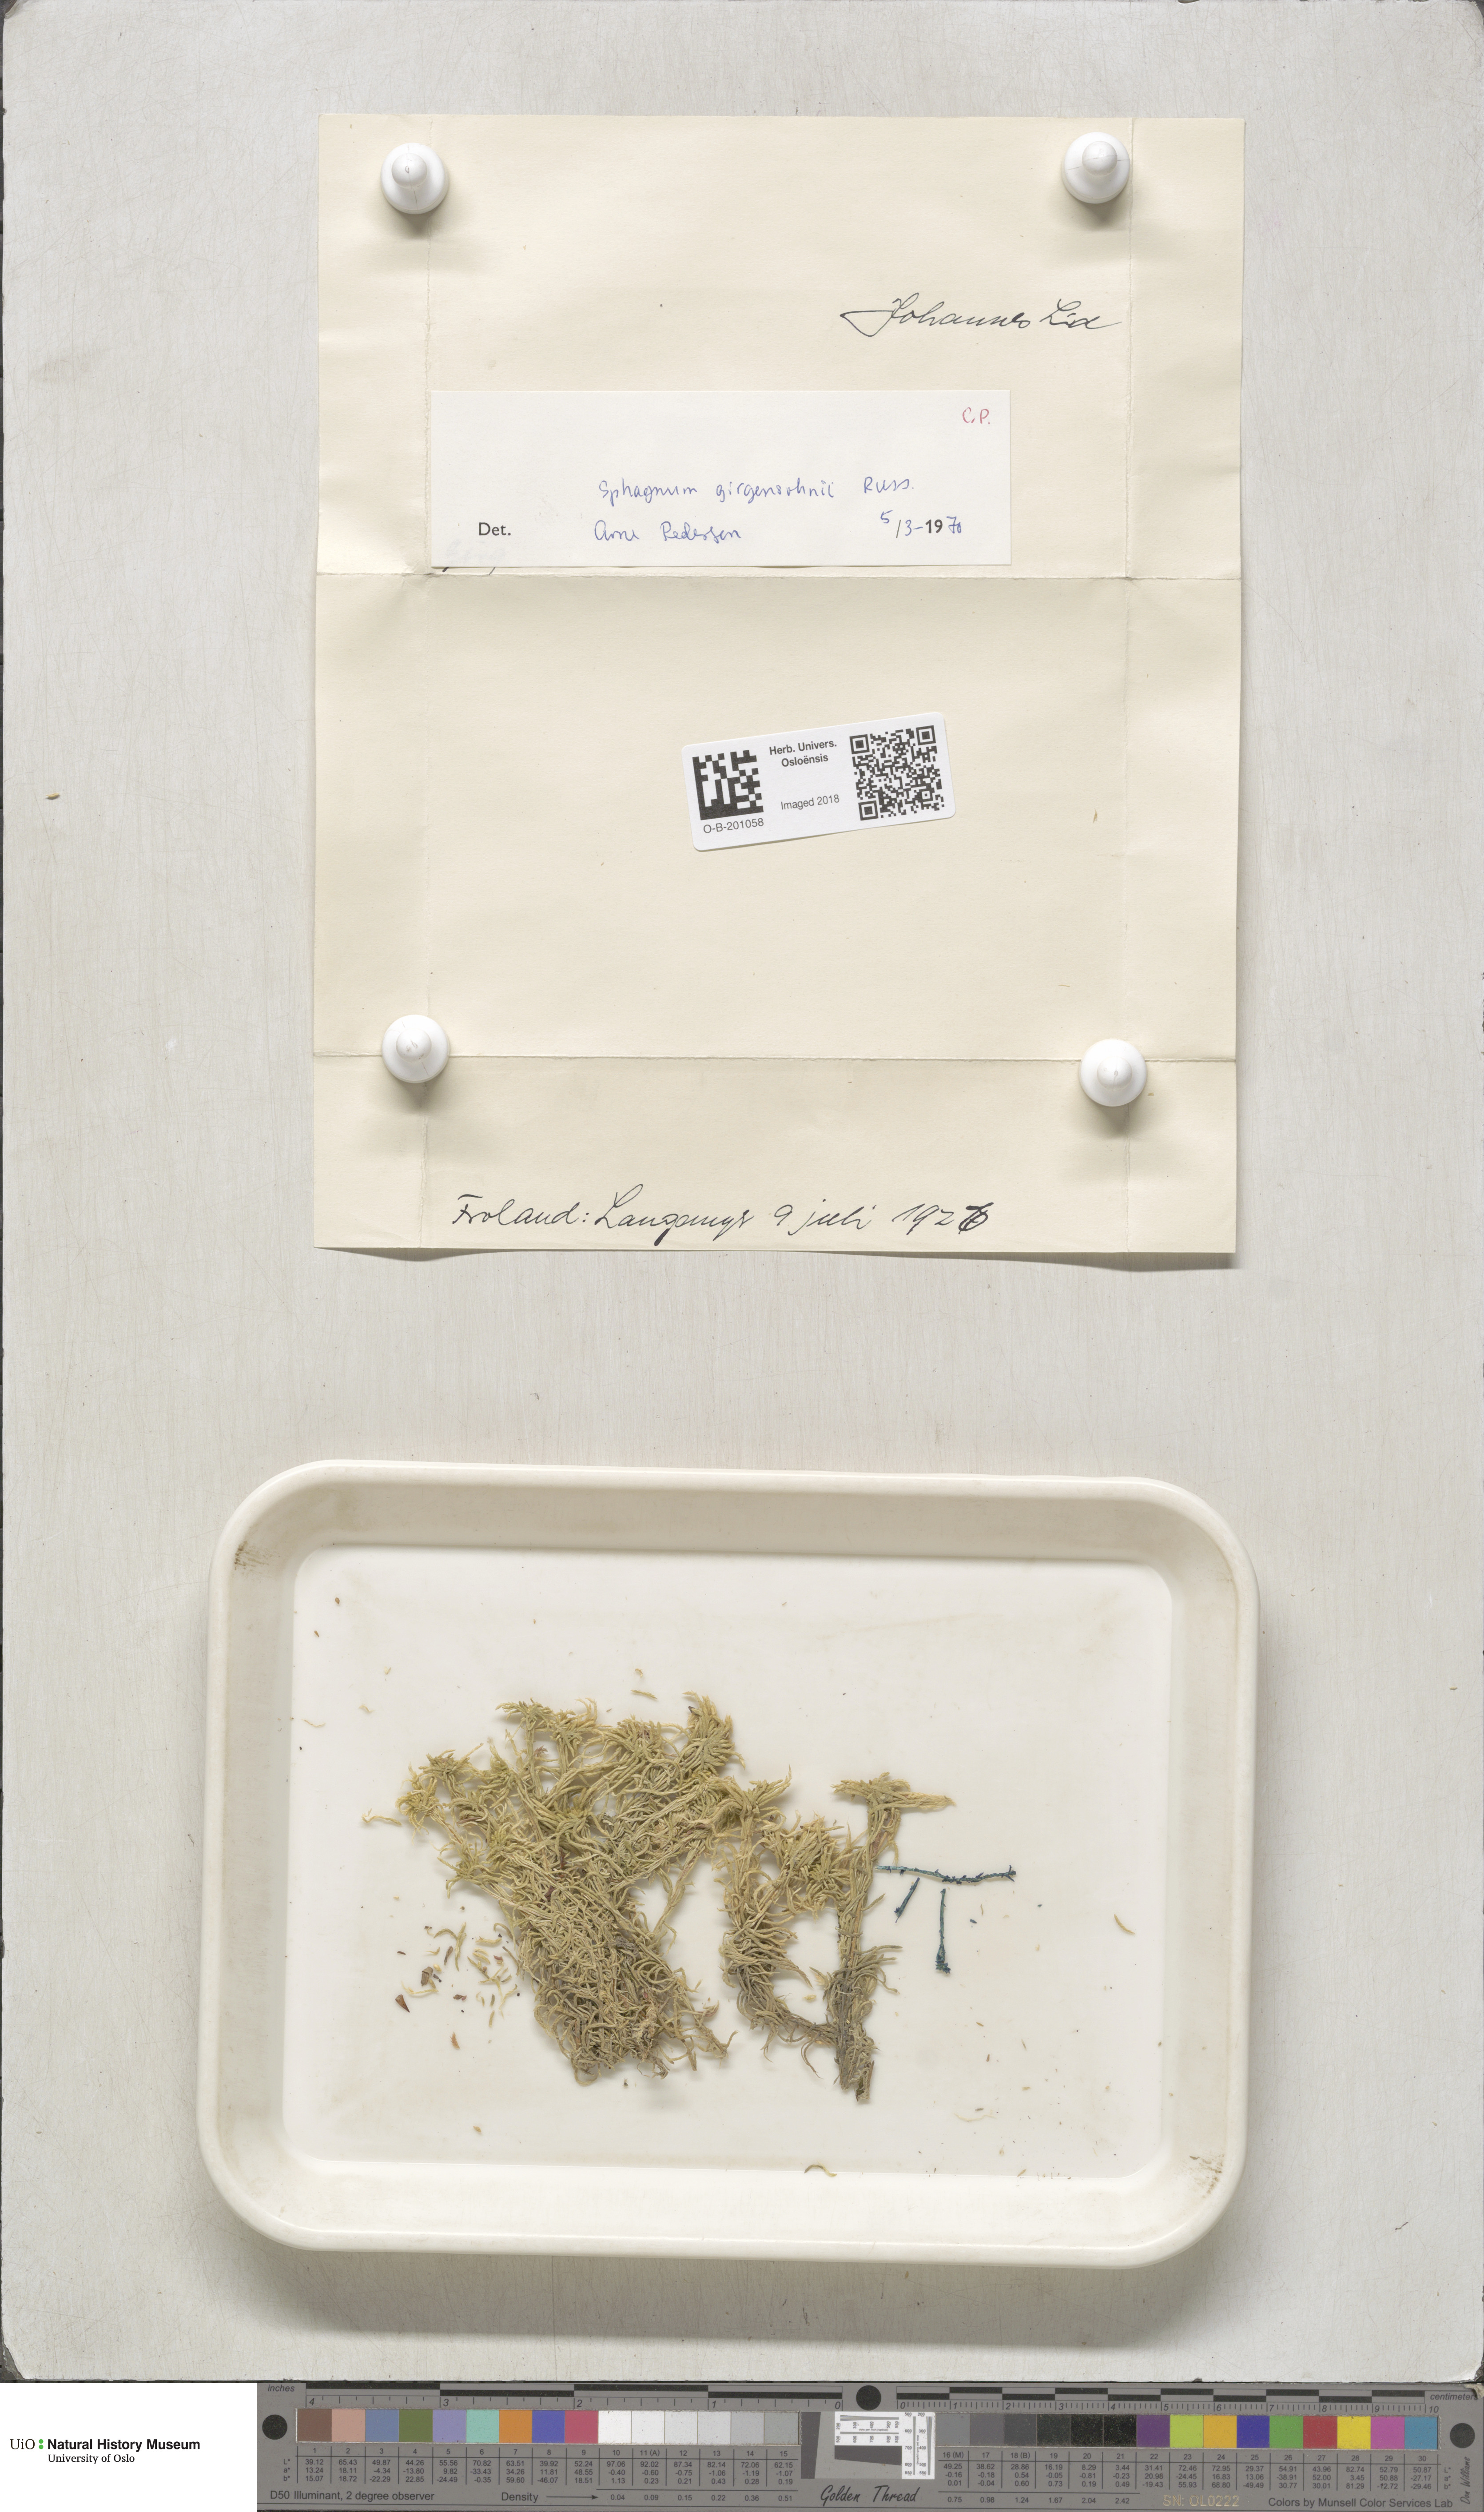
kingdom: Plantae
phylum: Bryophyta
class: Sphagnopsida
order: Sphagnales
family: Sphagnaceae
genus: Sphagnum
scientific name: Sphagnum girgensohnii
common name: Girgensohn's peat moss
